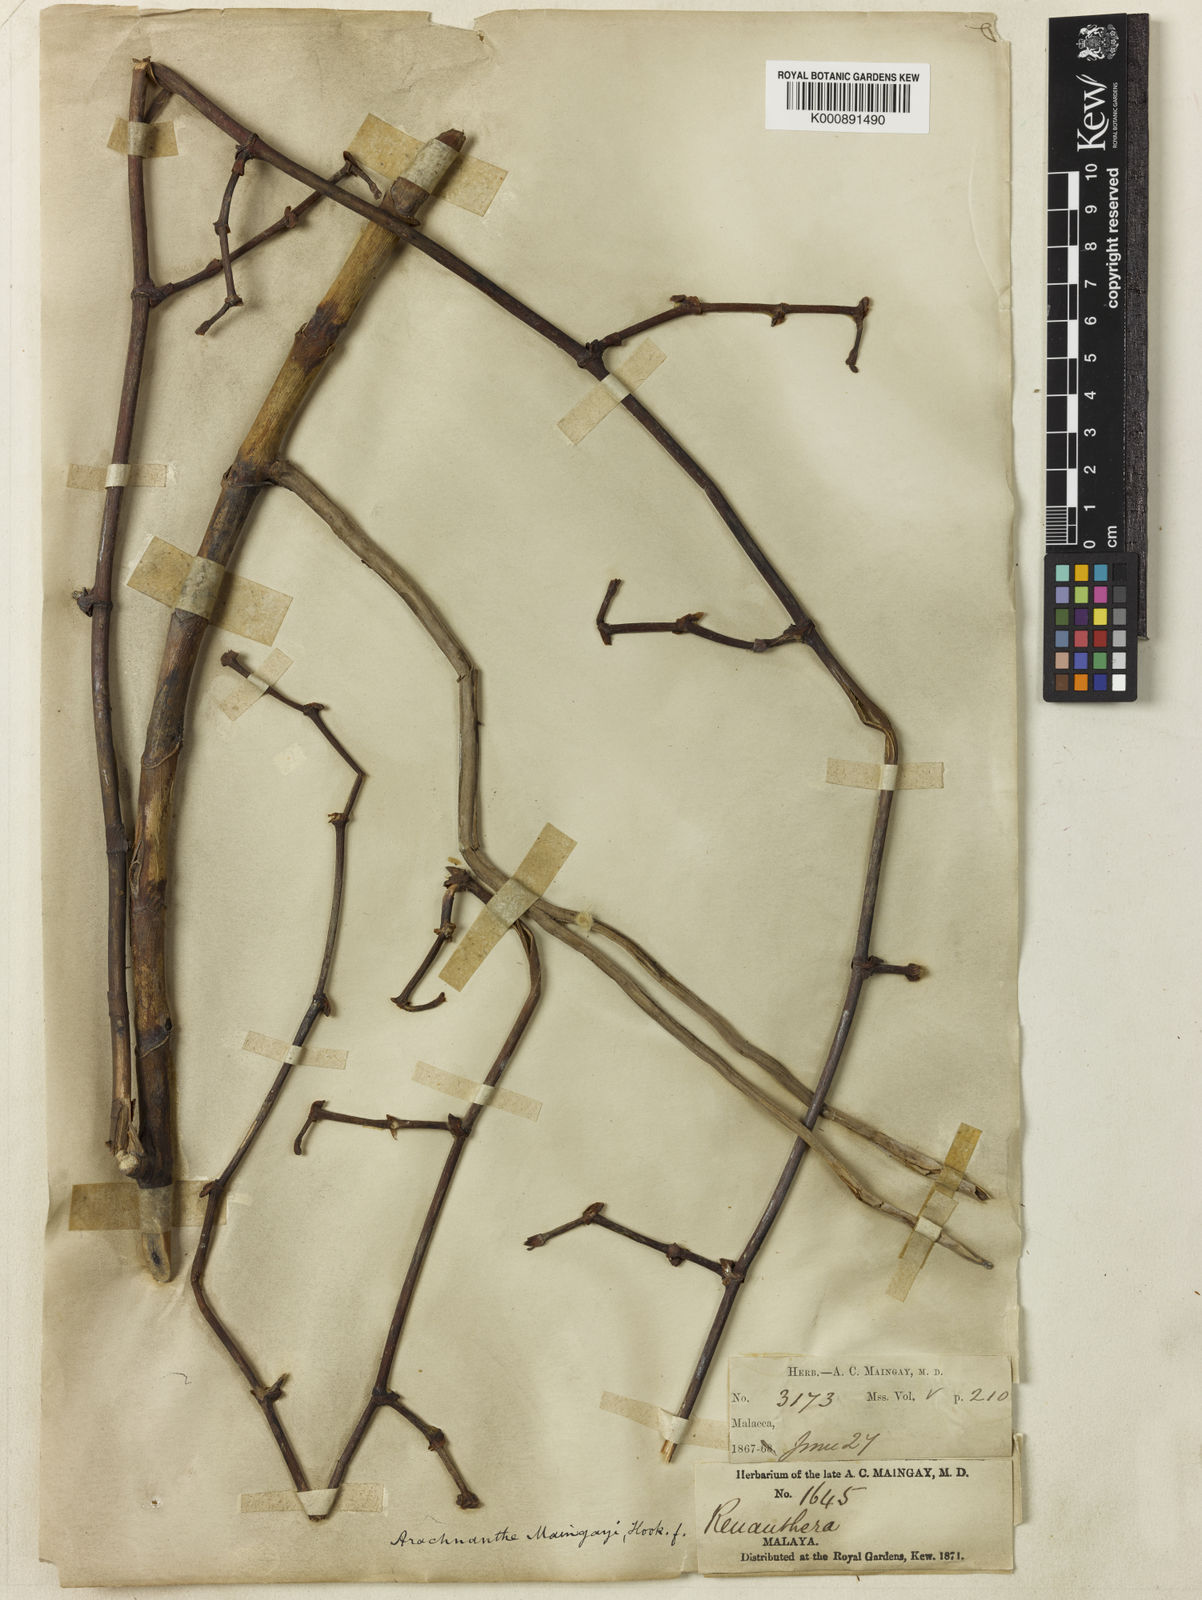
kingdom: Plantae
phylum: Tracheophyta
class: Liliopsida
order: Asparagales
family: Orchidaceae
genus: Arachnis
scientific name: Arachnis maingayi
